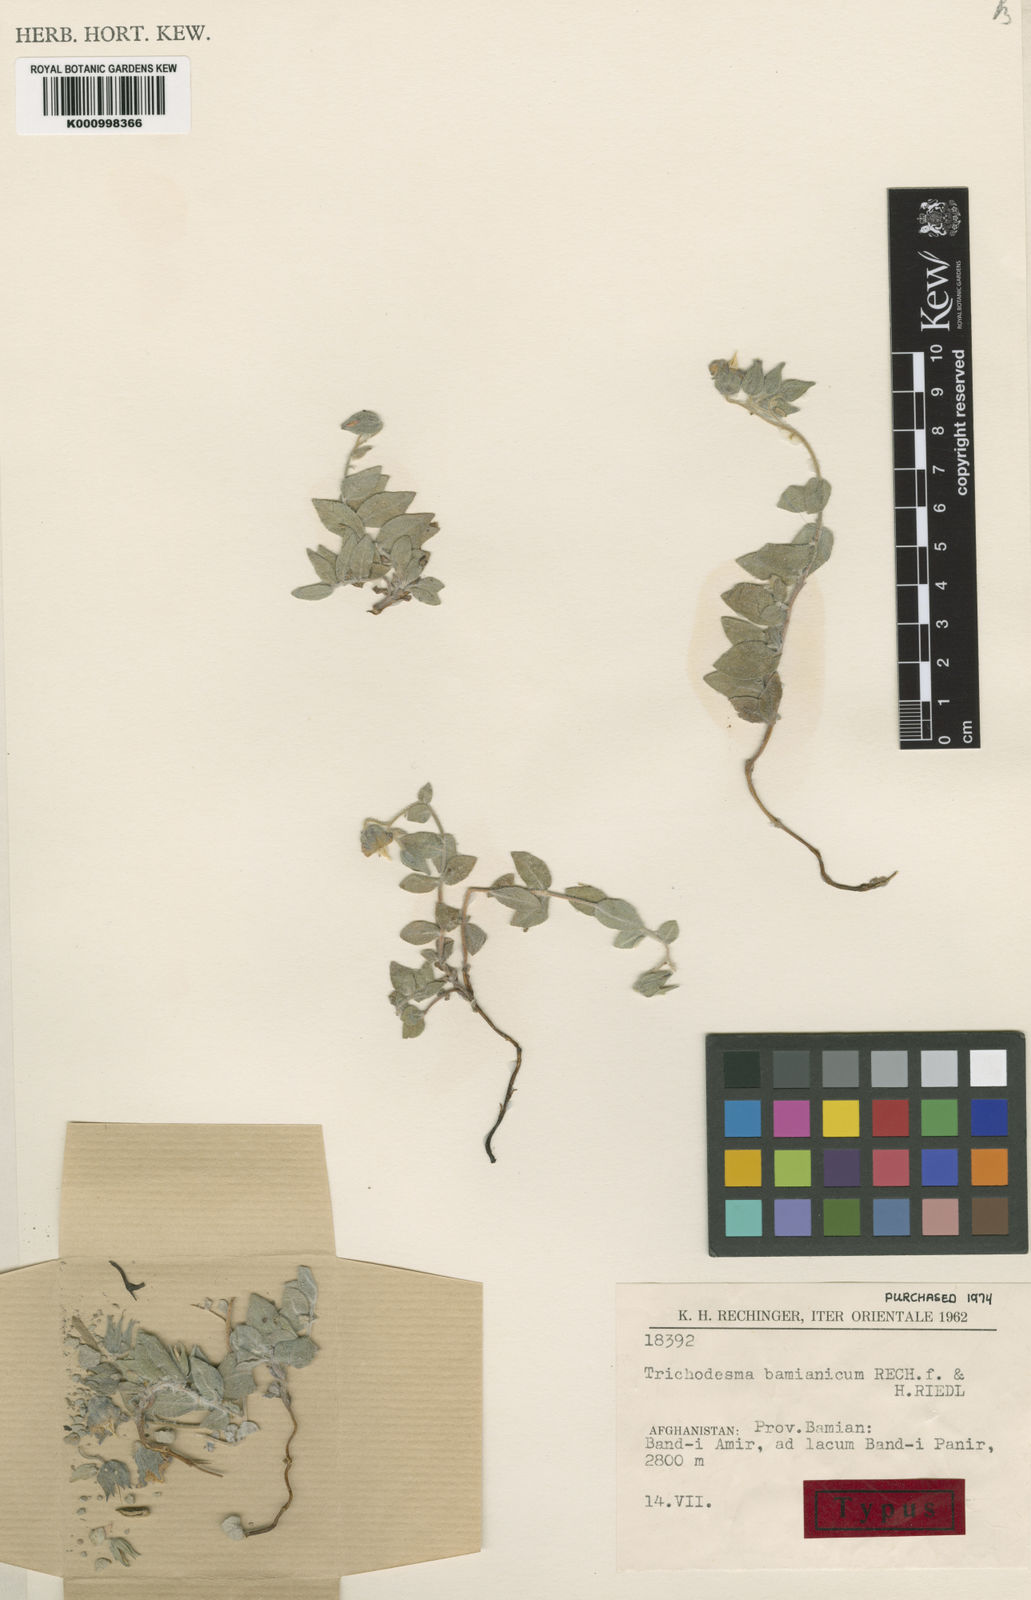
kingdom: Plantae
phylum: Tracheophyta
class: Magnoliopsida
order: Boraginales
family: Boraginaceae
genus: Trichodesma
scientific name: Trichodesma bamianicum
